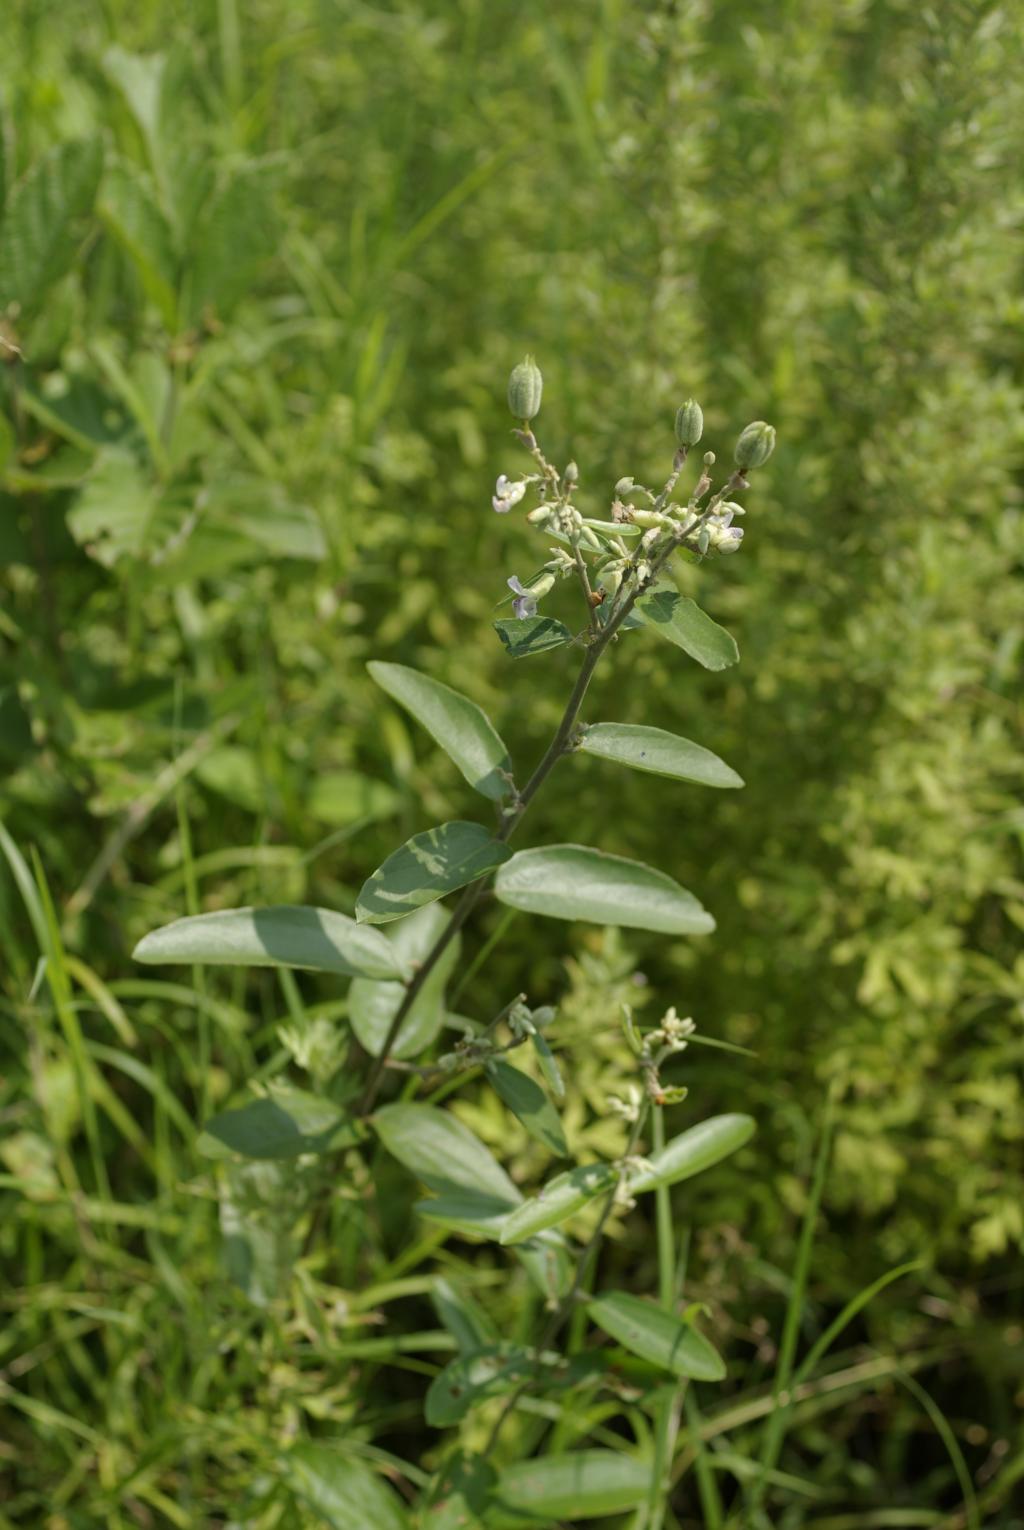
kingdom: Plantae
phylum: Tracheophyta
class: Magnoliopsida
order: Malvales
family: Malvaceae
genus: Helicteres
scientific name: Helicteres augustifolia
